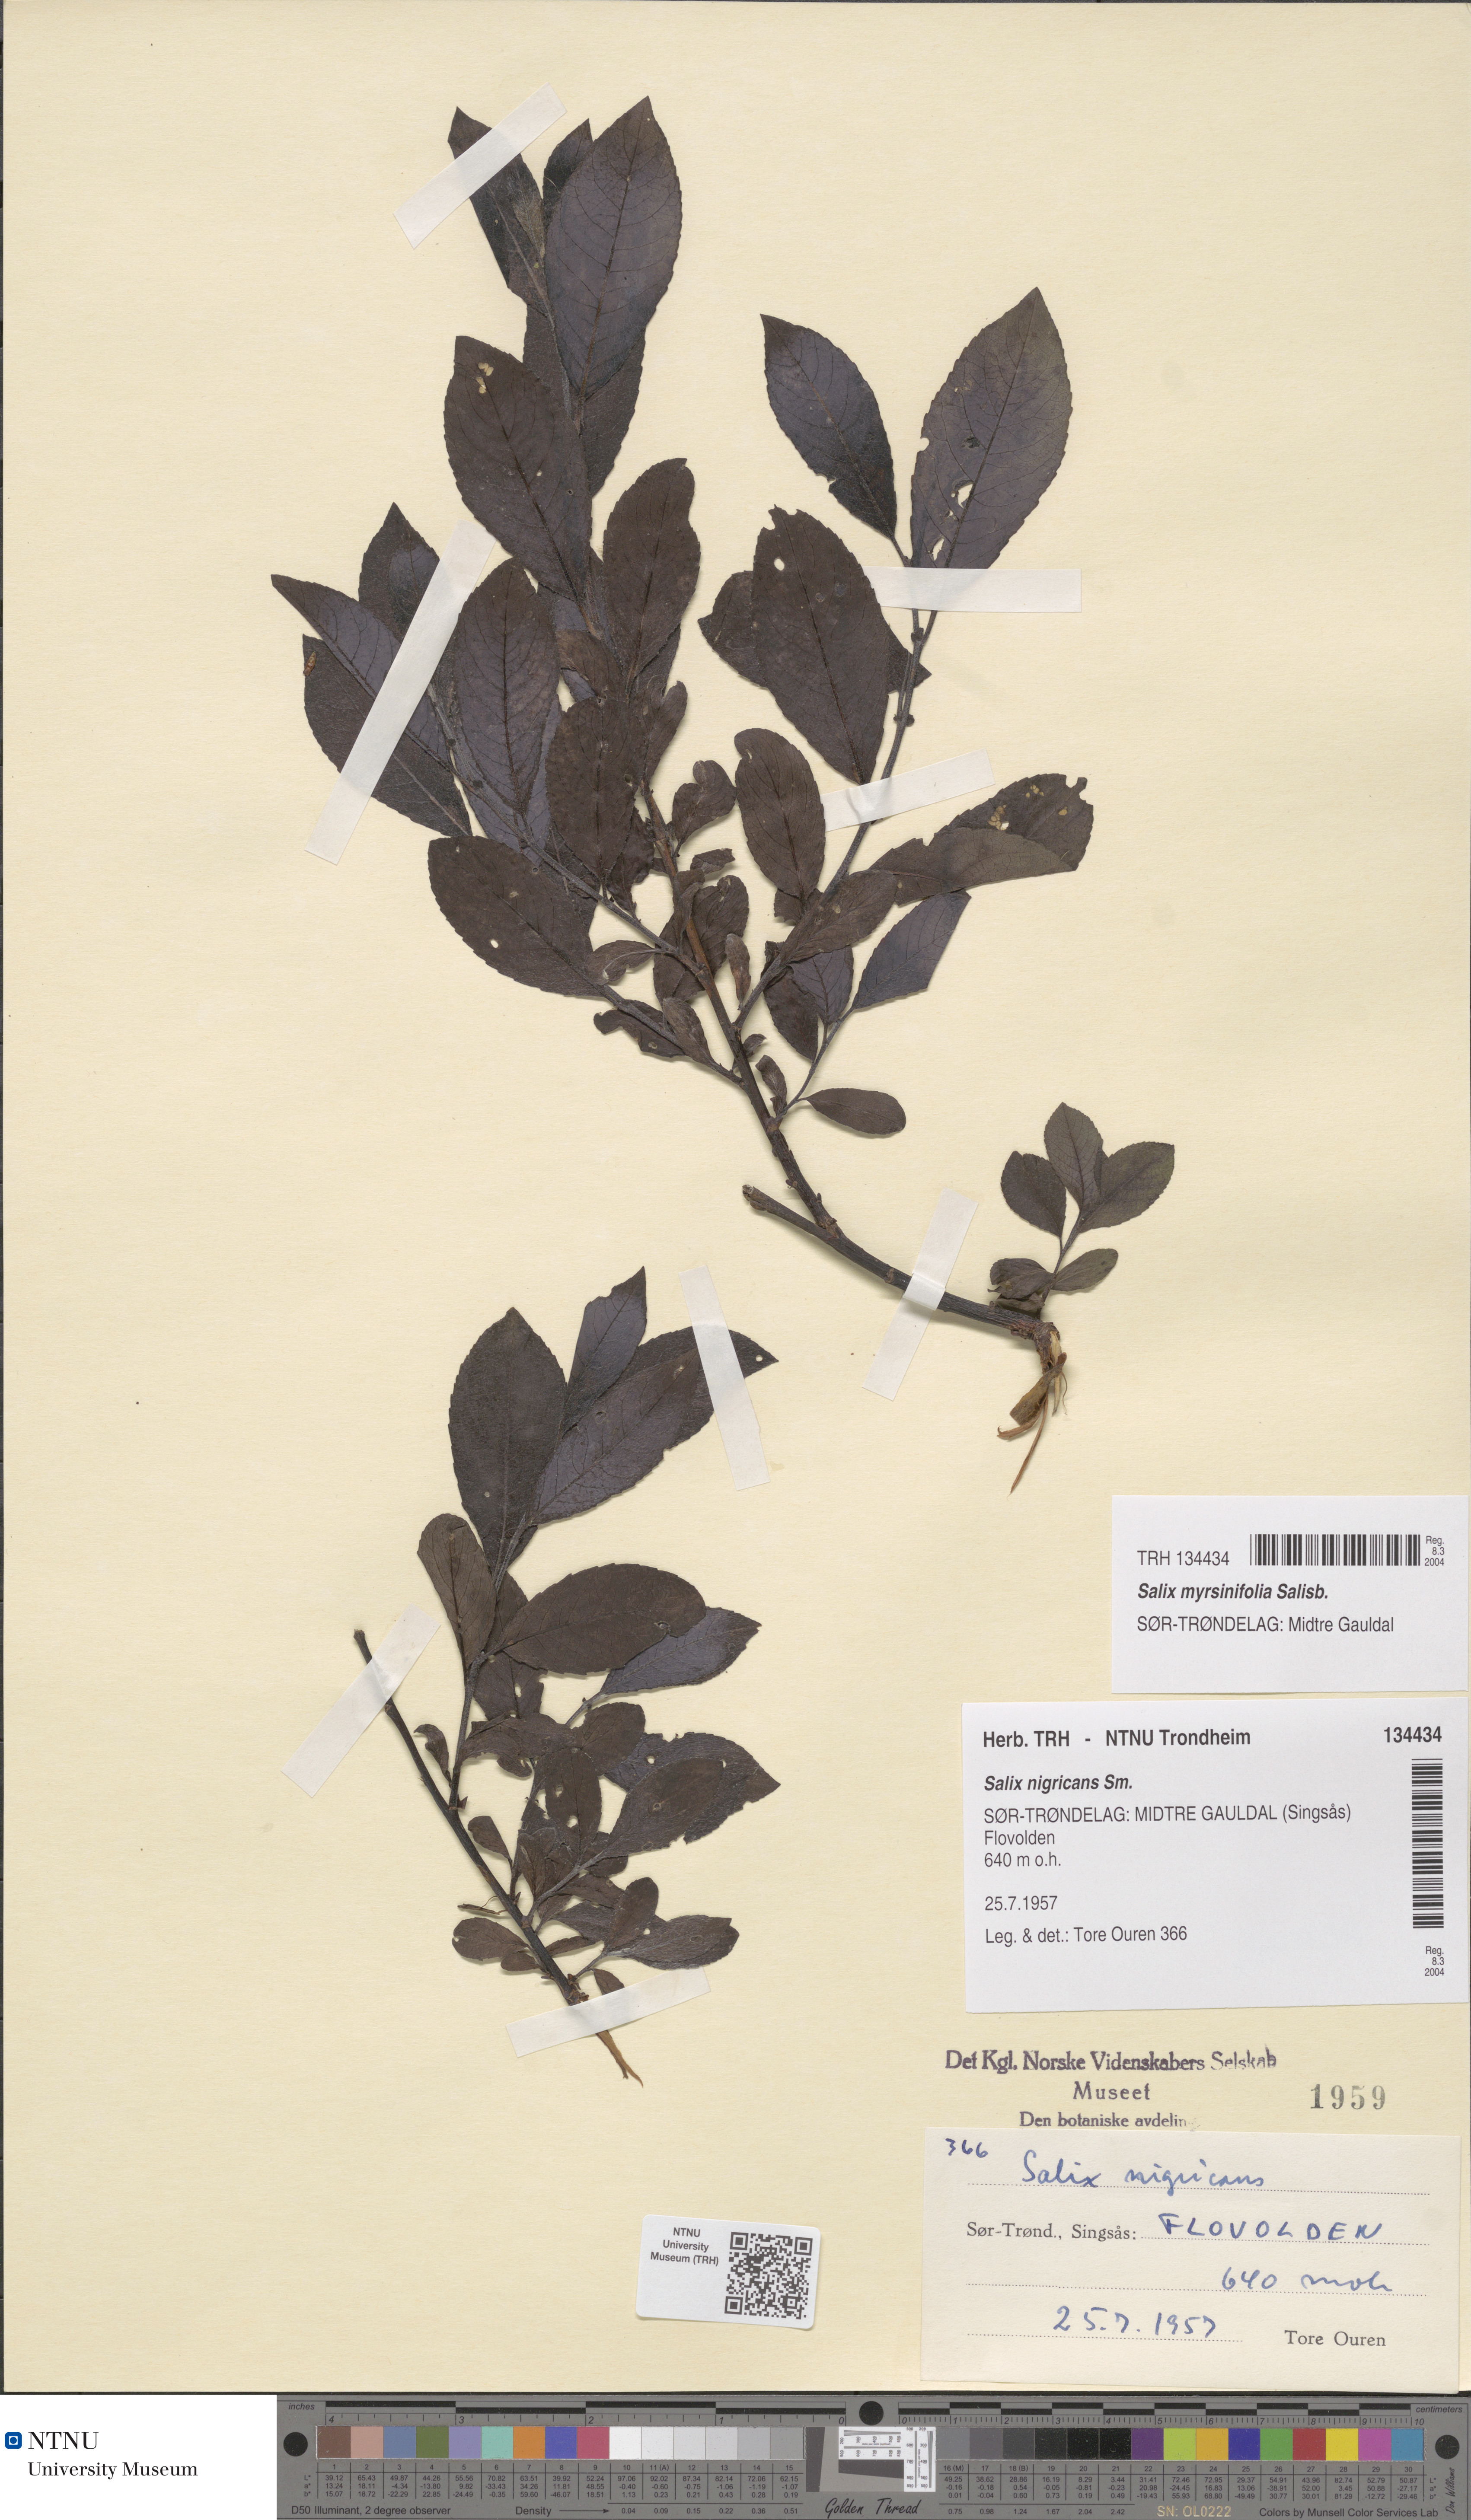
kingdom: Plantae
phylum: Tracheophyta
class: Magnoliopsida
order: Malpighiales
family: Salicaceae
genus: Salix
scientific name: Salix myrsinifolia
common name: Dark-leaved willow
